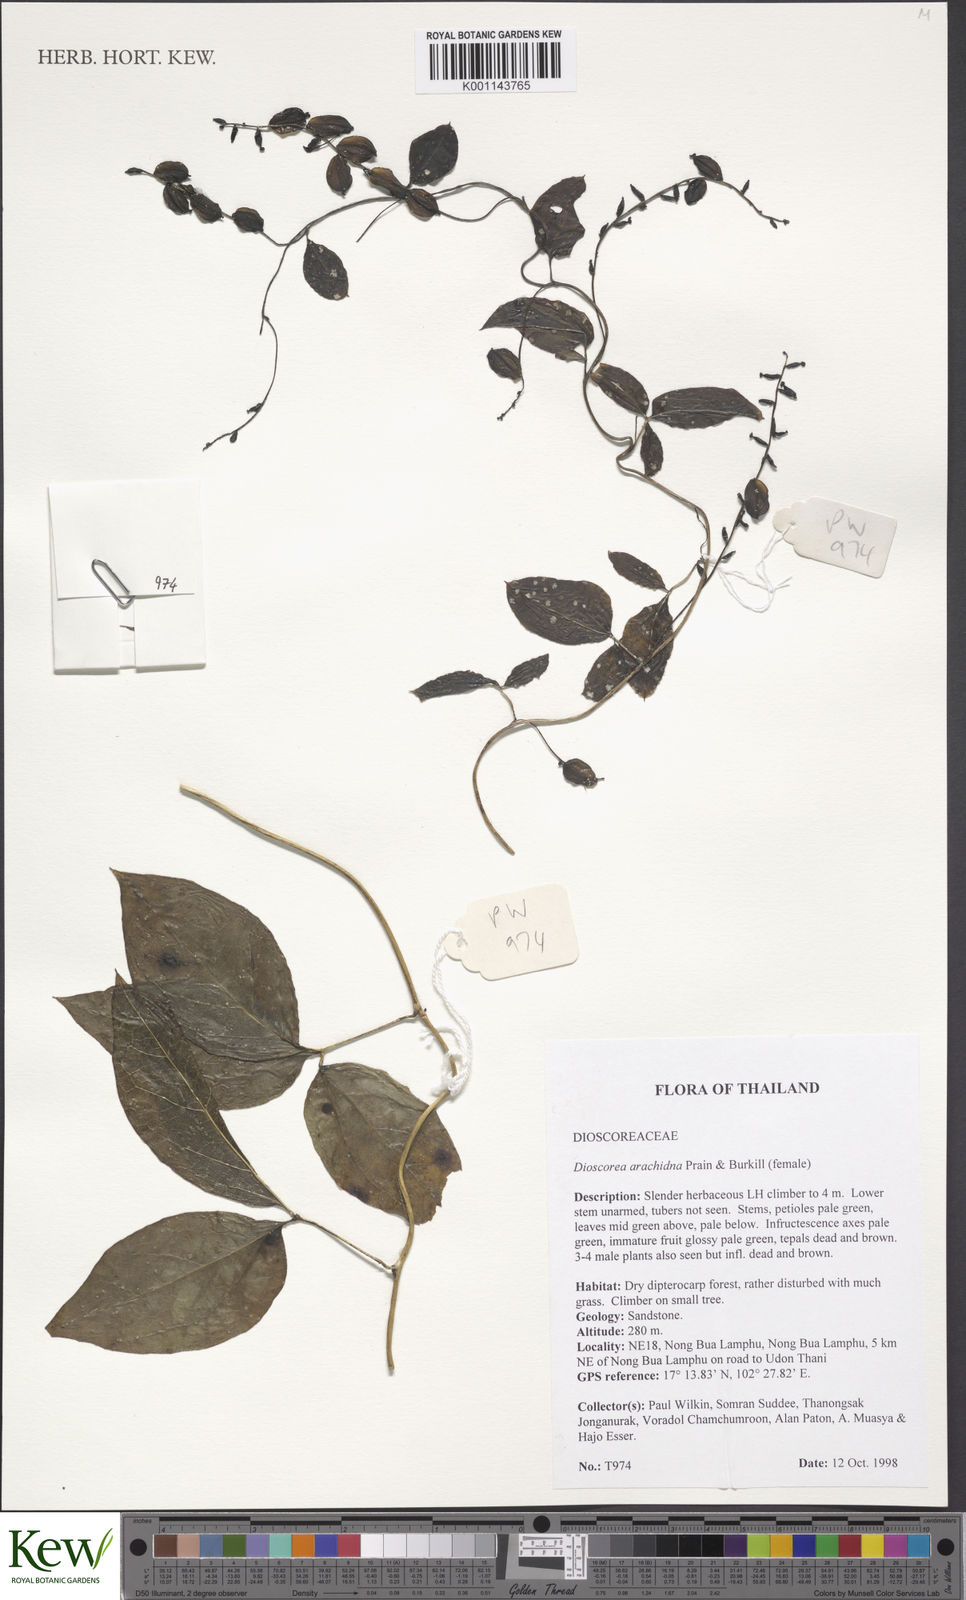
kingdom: Plantae
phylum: Tracheophyta
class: Liliopsida
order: Dioscoreales
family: Dioscoreaceae
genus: Dioscorea
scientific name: Dioscorea arachidna
